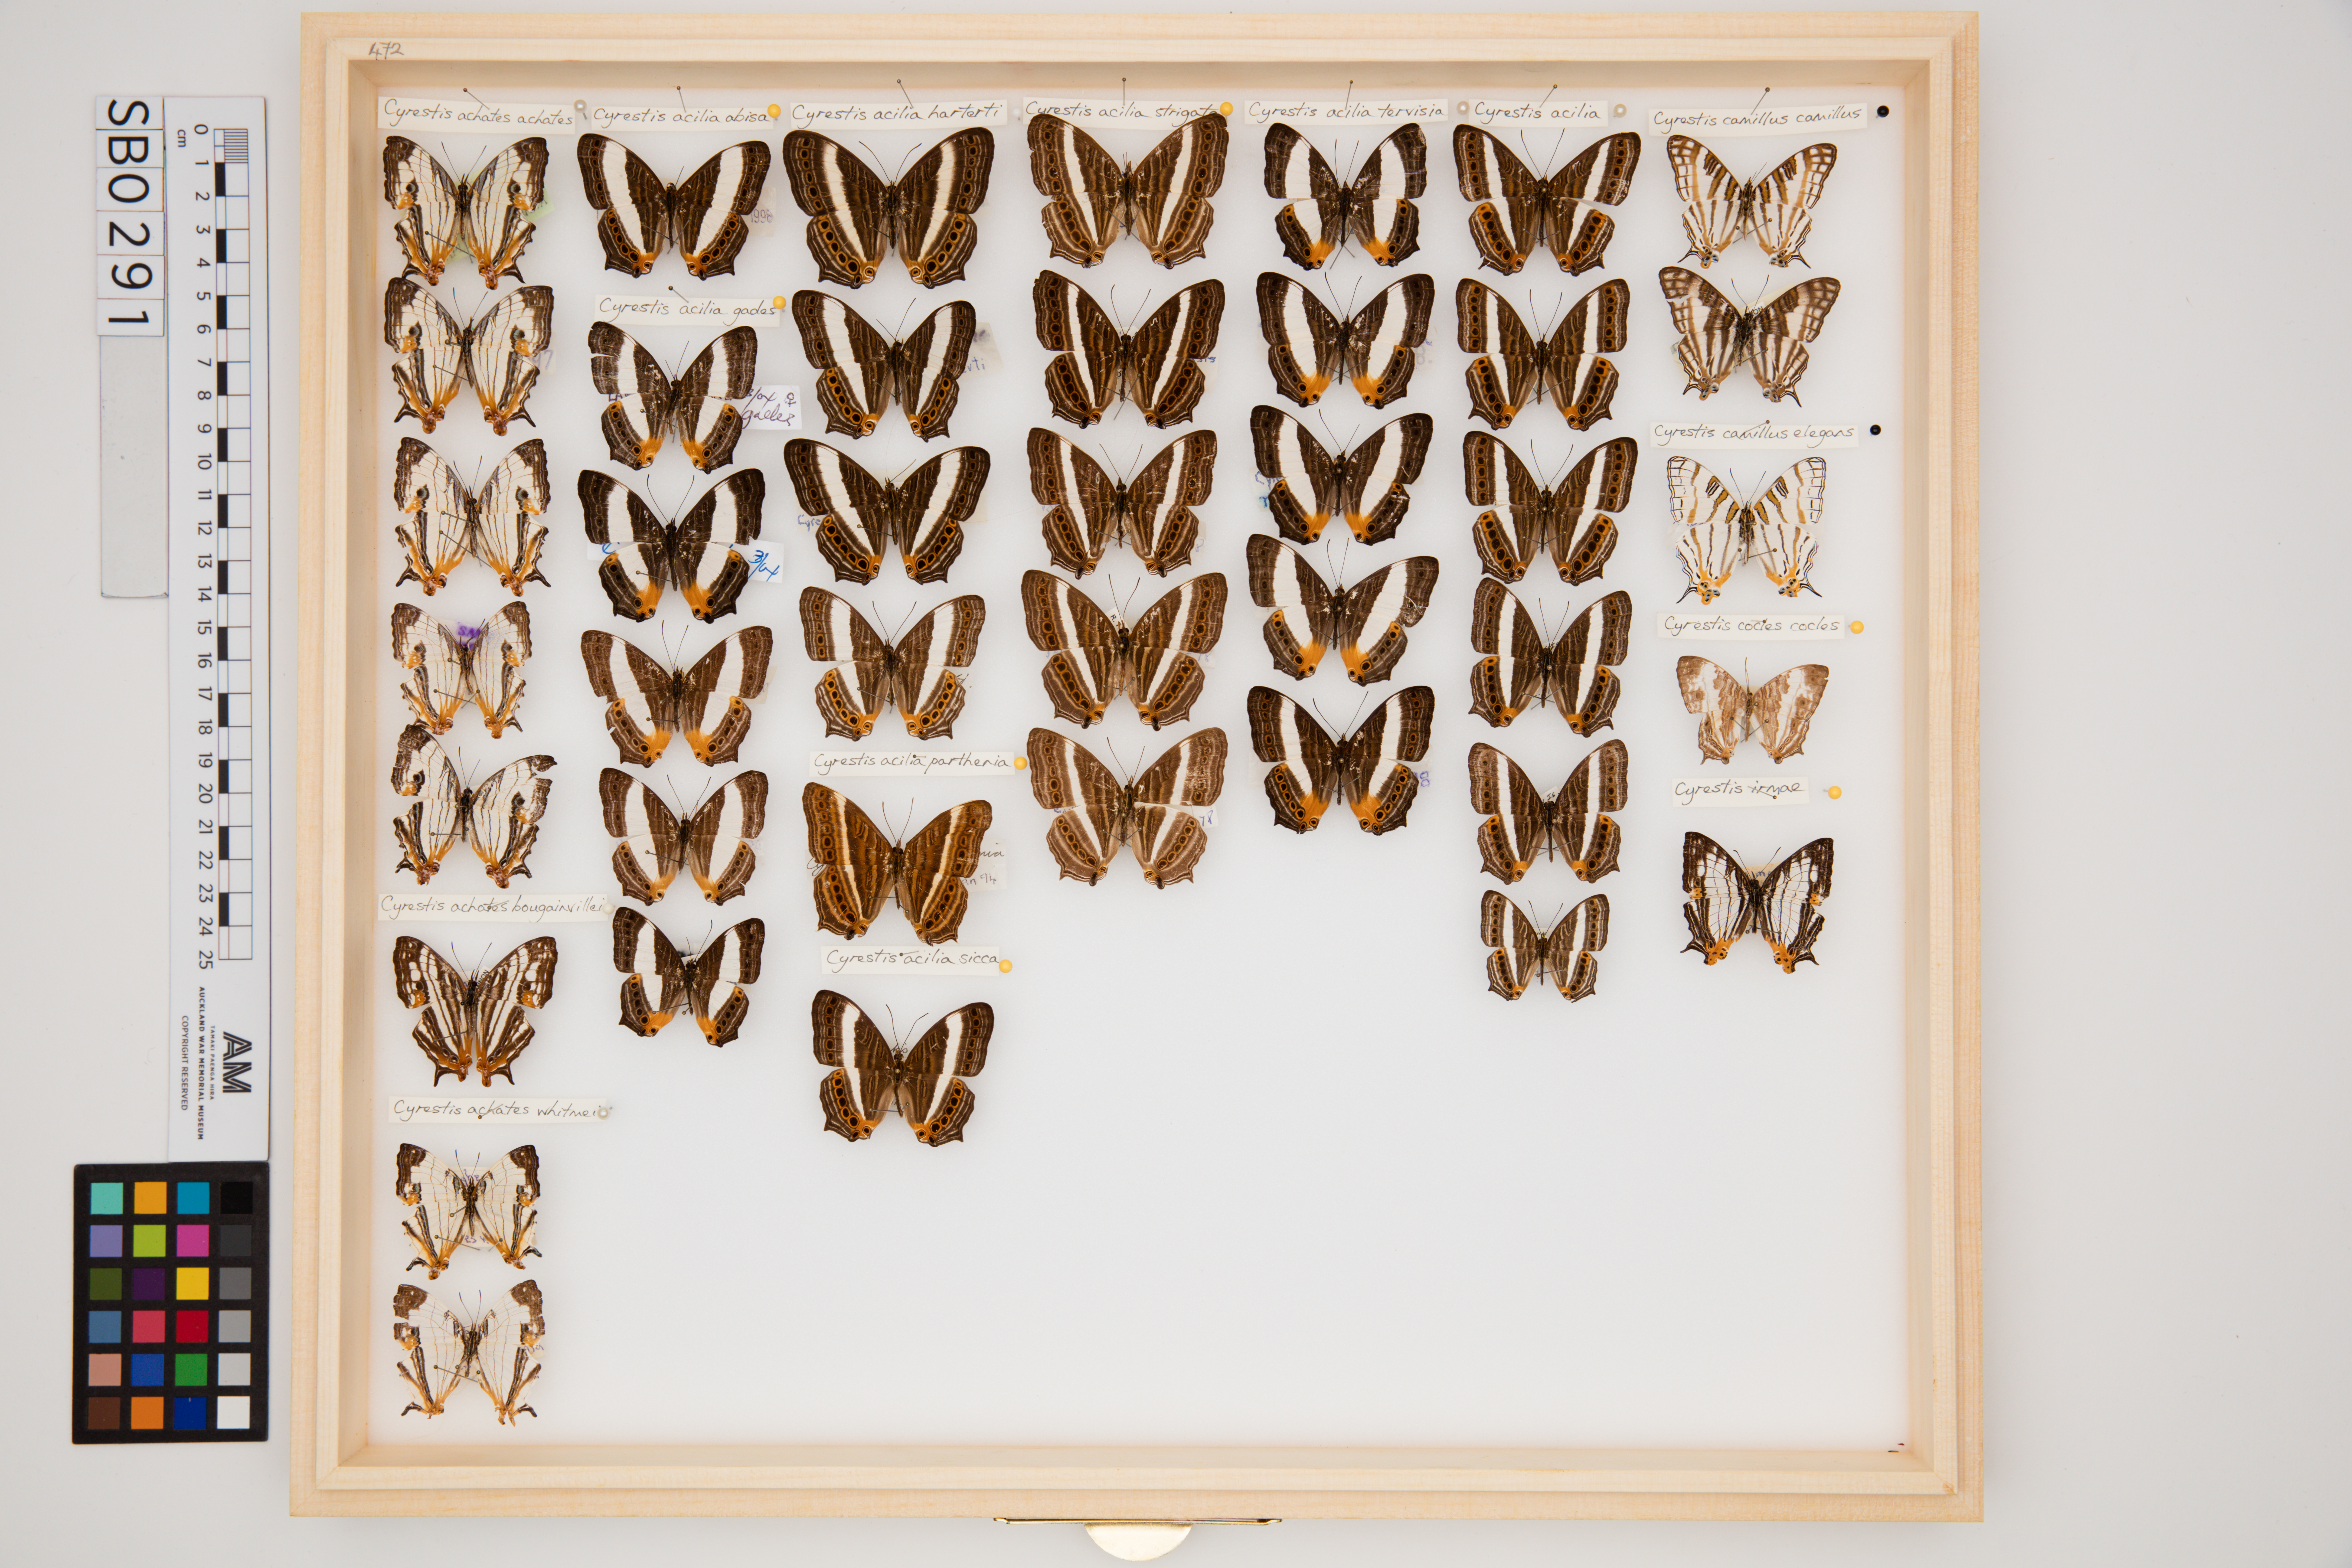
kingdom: Animalia
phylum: Arthropoda
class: Insecta
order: Lepidoptera
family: Nymphalidae
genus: Cyrestis
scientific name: Cyrestis achates
